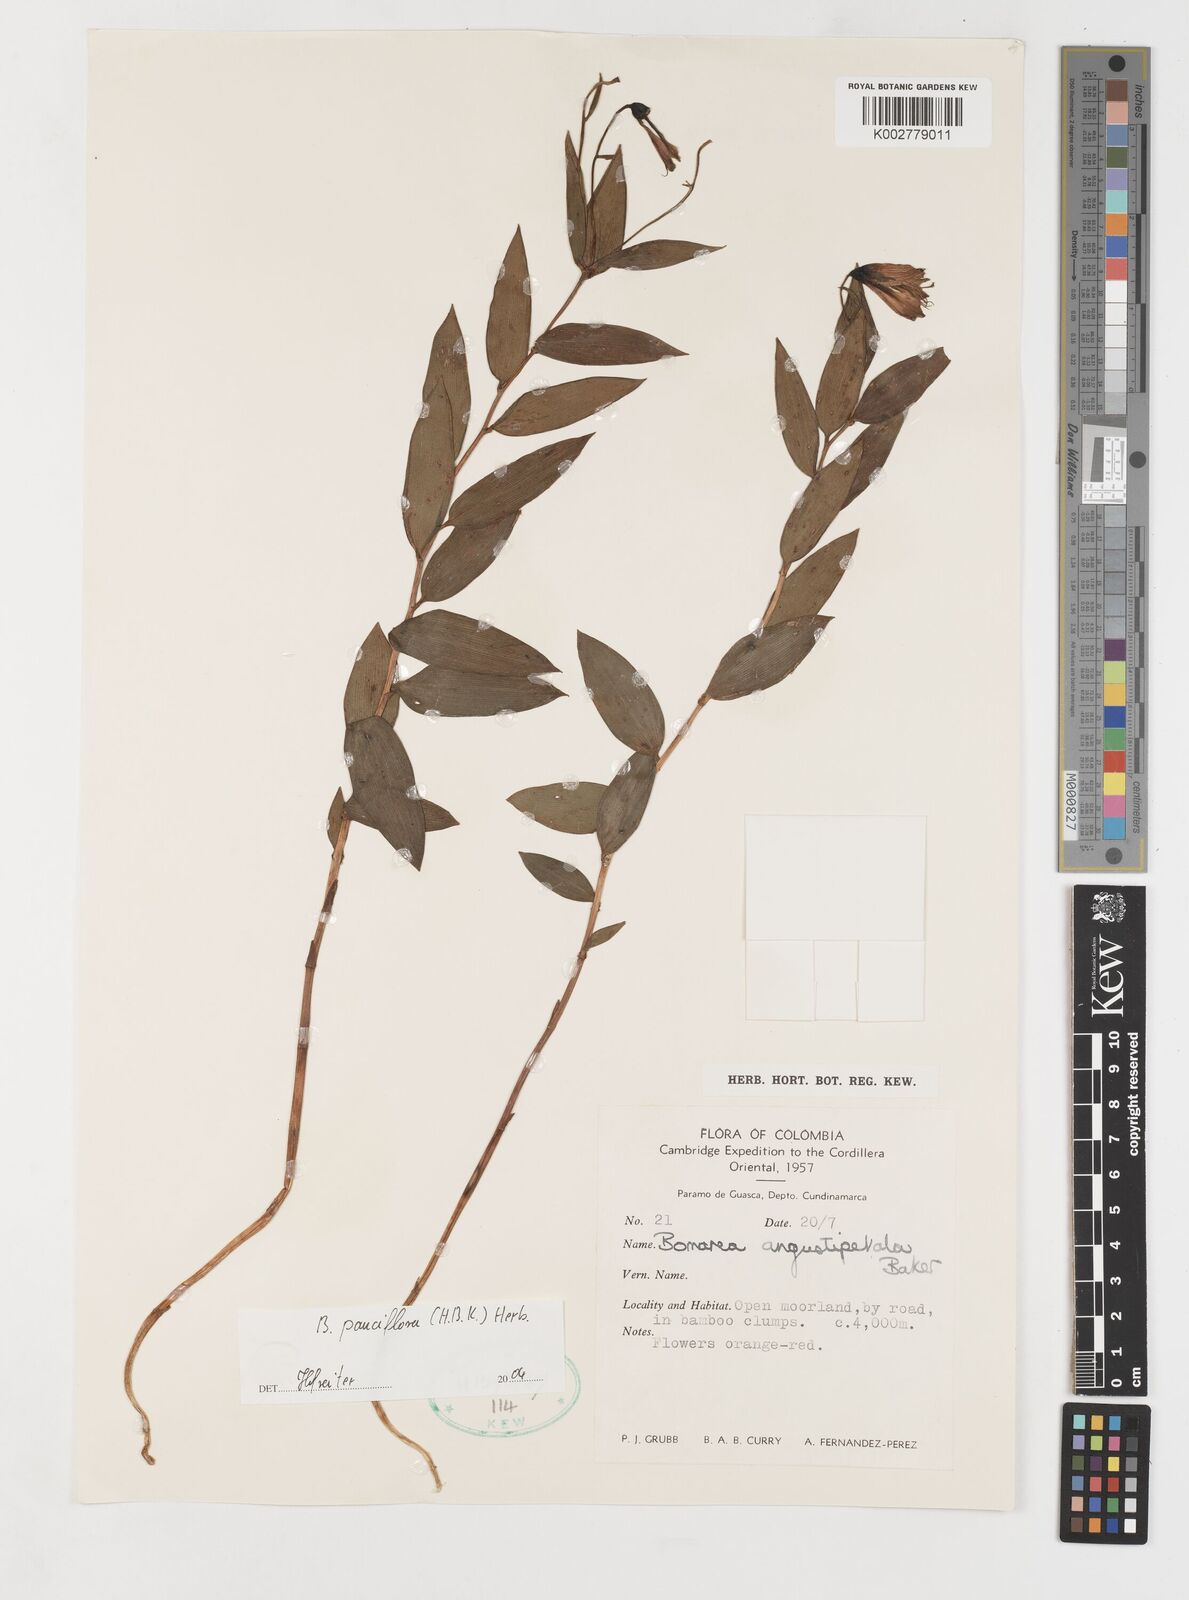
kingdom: Plantae
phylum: Tracheophyta
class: Liliopsida
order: Liliales
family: Alstroemeriaceae
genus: Bomarea
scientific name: Bomarea pauciflora
